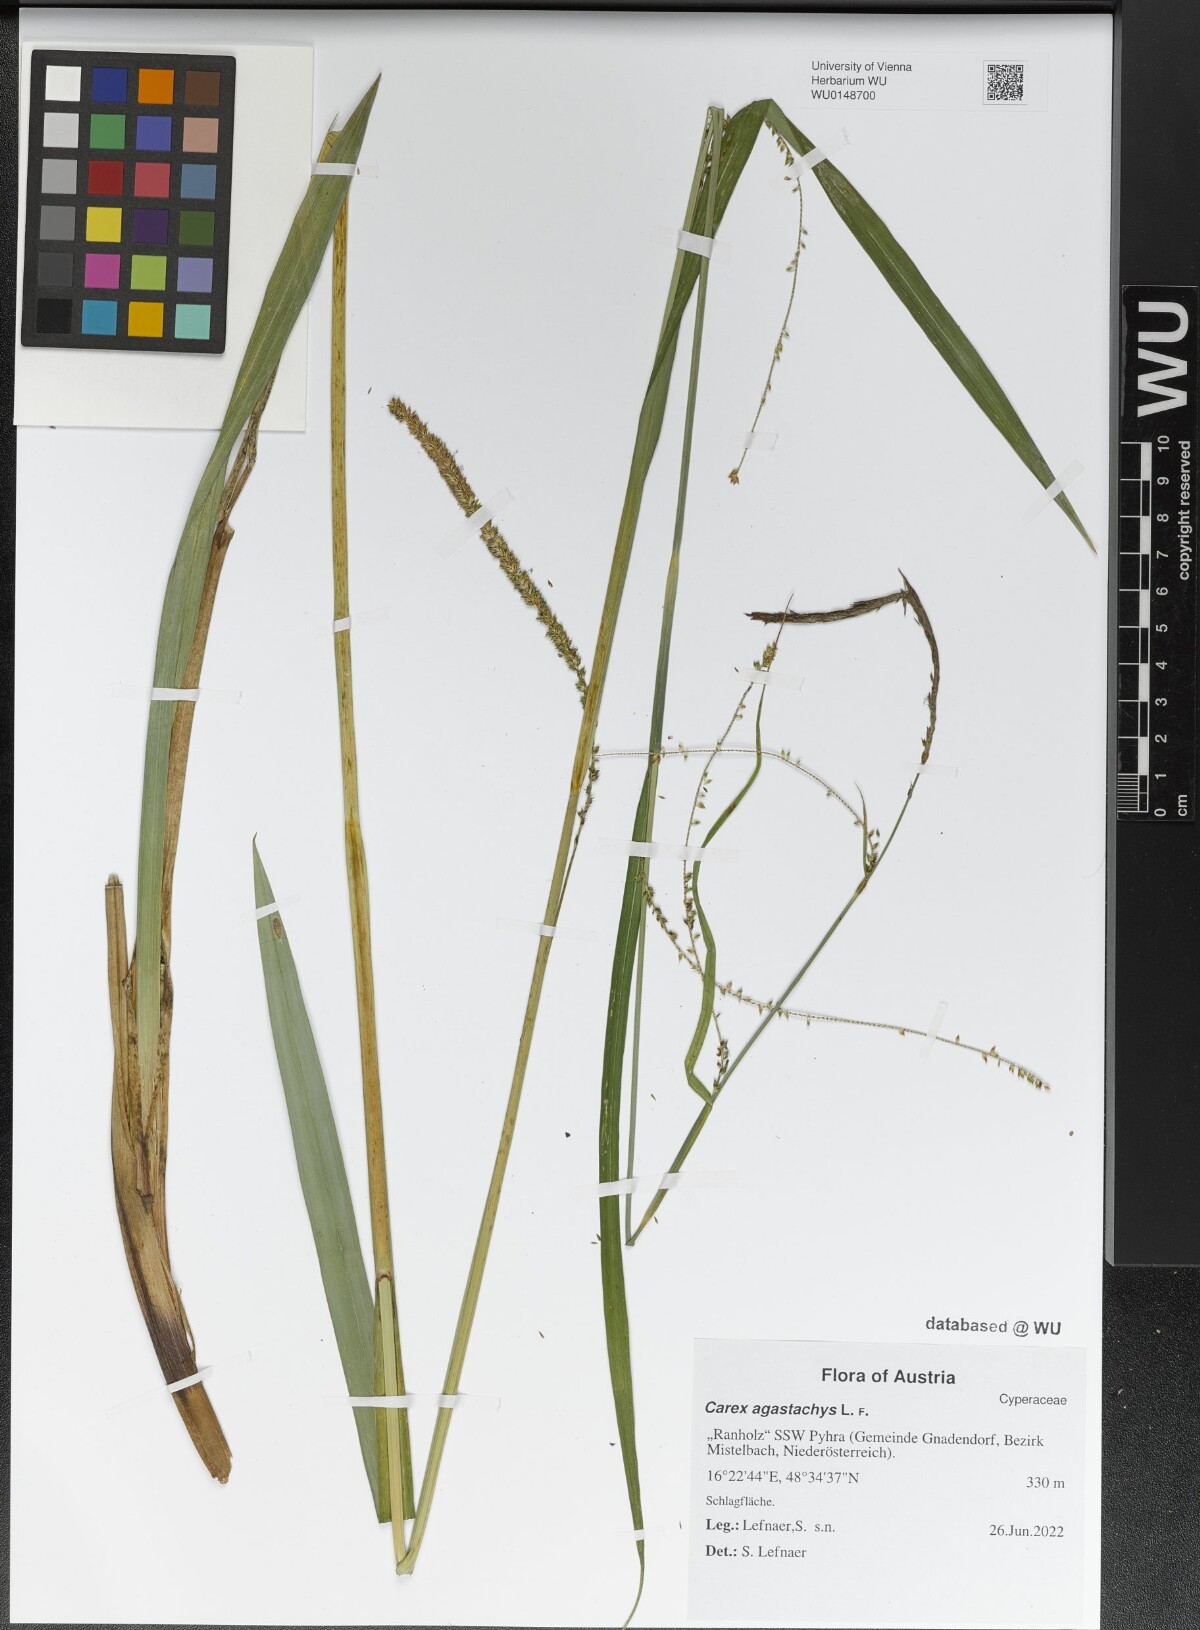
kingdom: Plantae
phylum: Tracheophyta
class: Liliopsida
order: Poales
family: Cyperaceae
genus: Carex
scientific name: Carex agastachys
